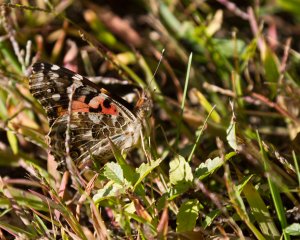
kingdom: Animalia
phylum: Arthropoda
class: Insecta
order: Lepidoptera
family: Nymphalidae
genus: Vanessa
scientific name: Vanessa cardui
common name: Painted Lady
